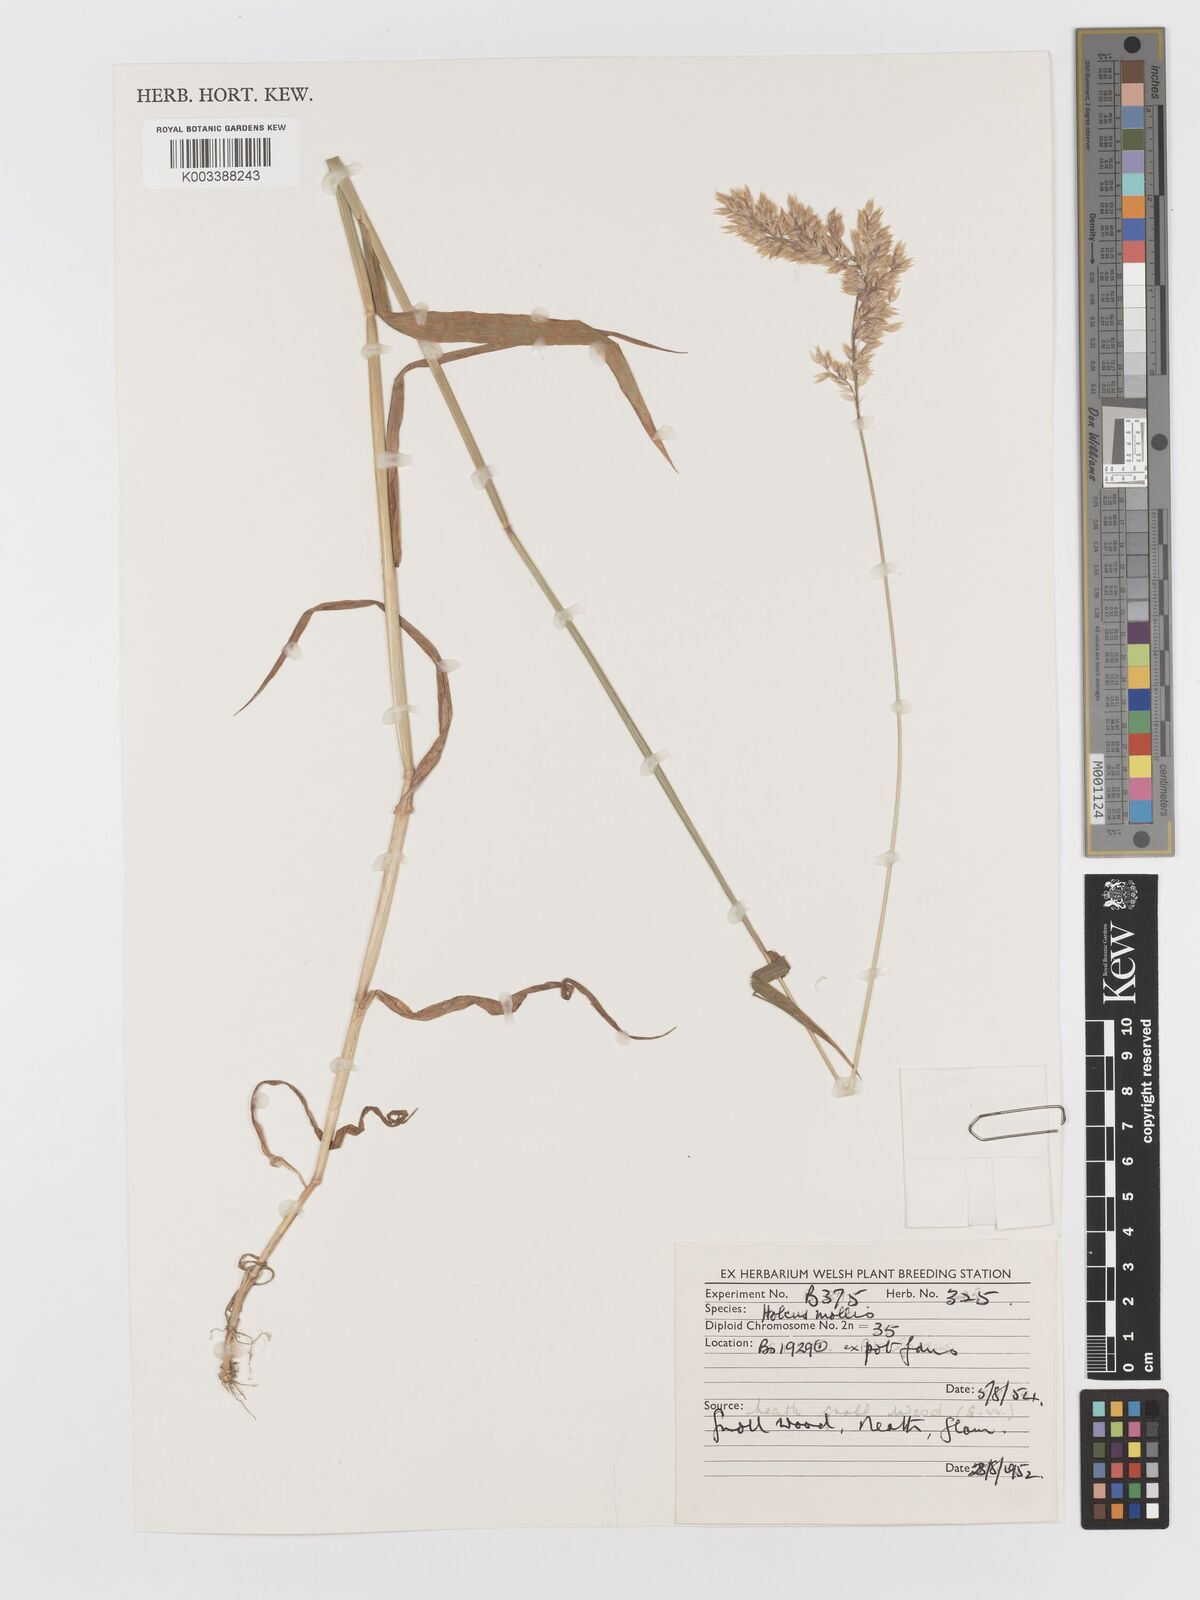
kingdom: Plantae
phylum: Tracheophyta
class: Liliopsida
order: Poales
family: Poaceae
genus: Holcus
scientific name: Holcus mollis
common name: Creeping velvetgrass
